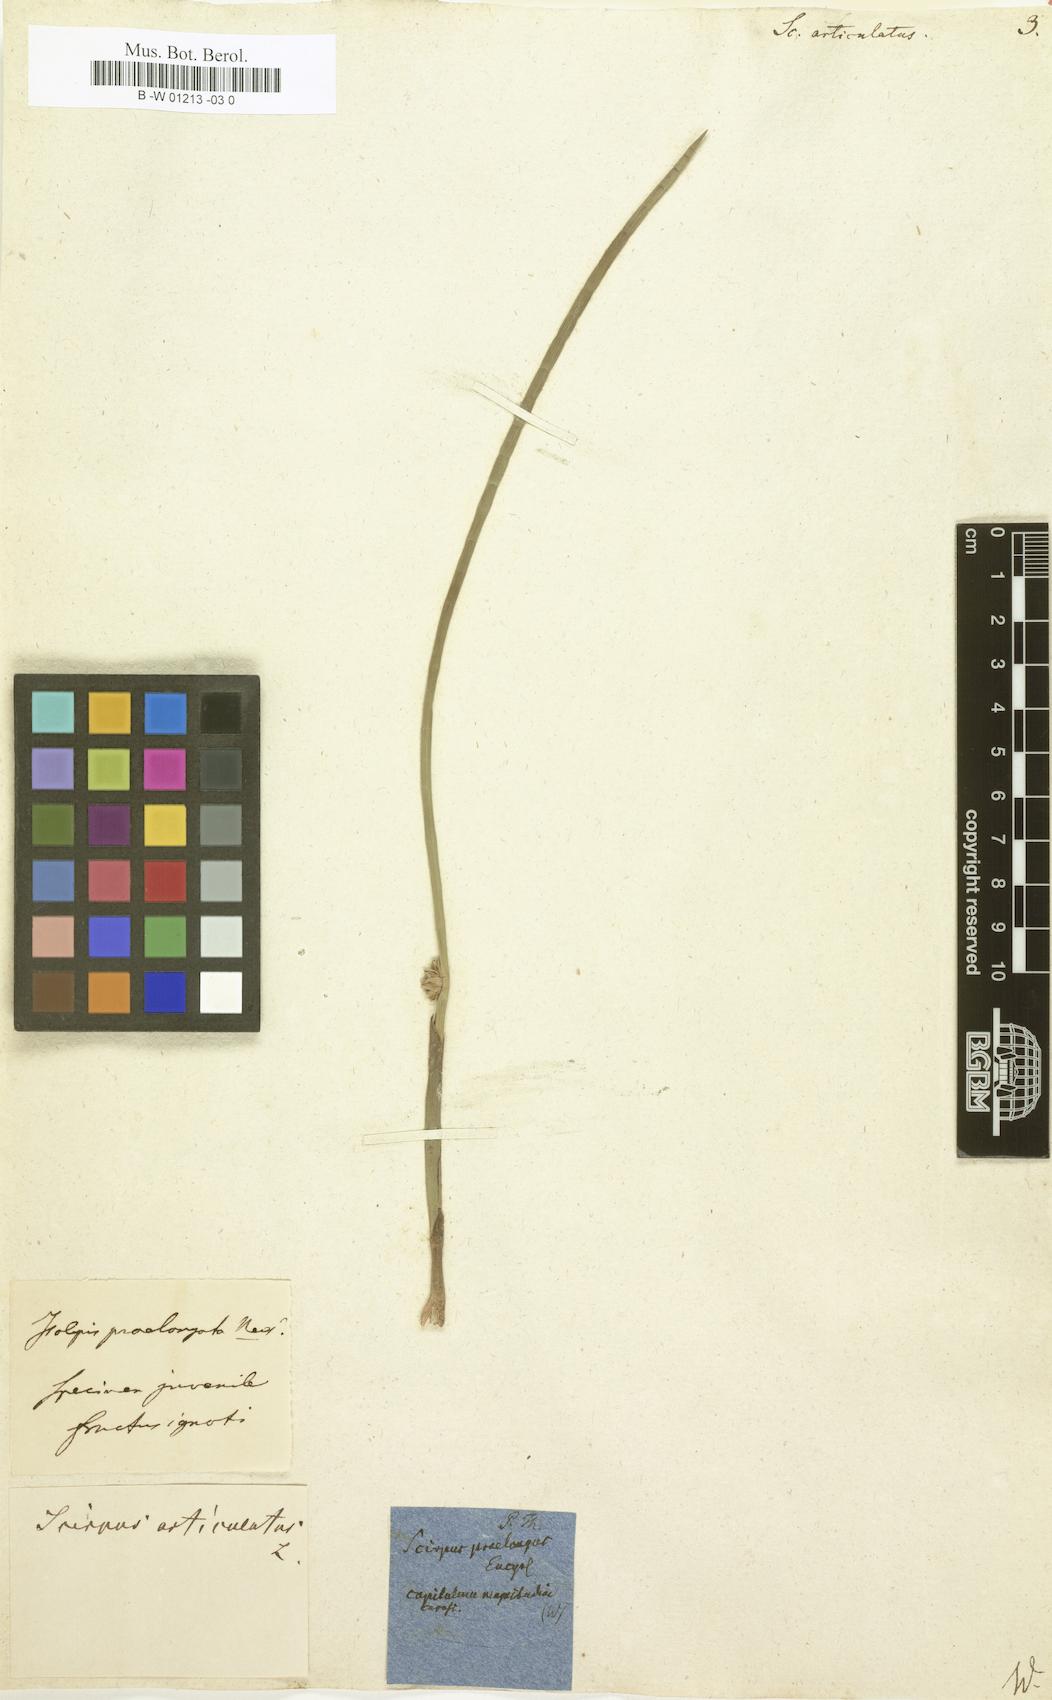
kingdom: Plantae
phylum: Tracheophyta
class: Liliopsida
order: Poales
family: Cyperaceae
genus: Schoenoplectiella
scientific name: Schoenoplectiella articulata
